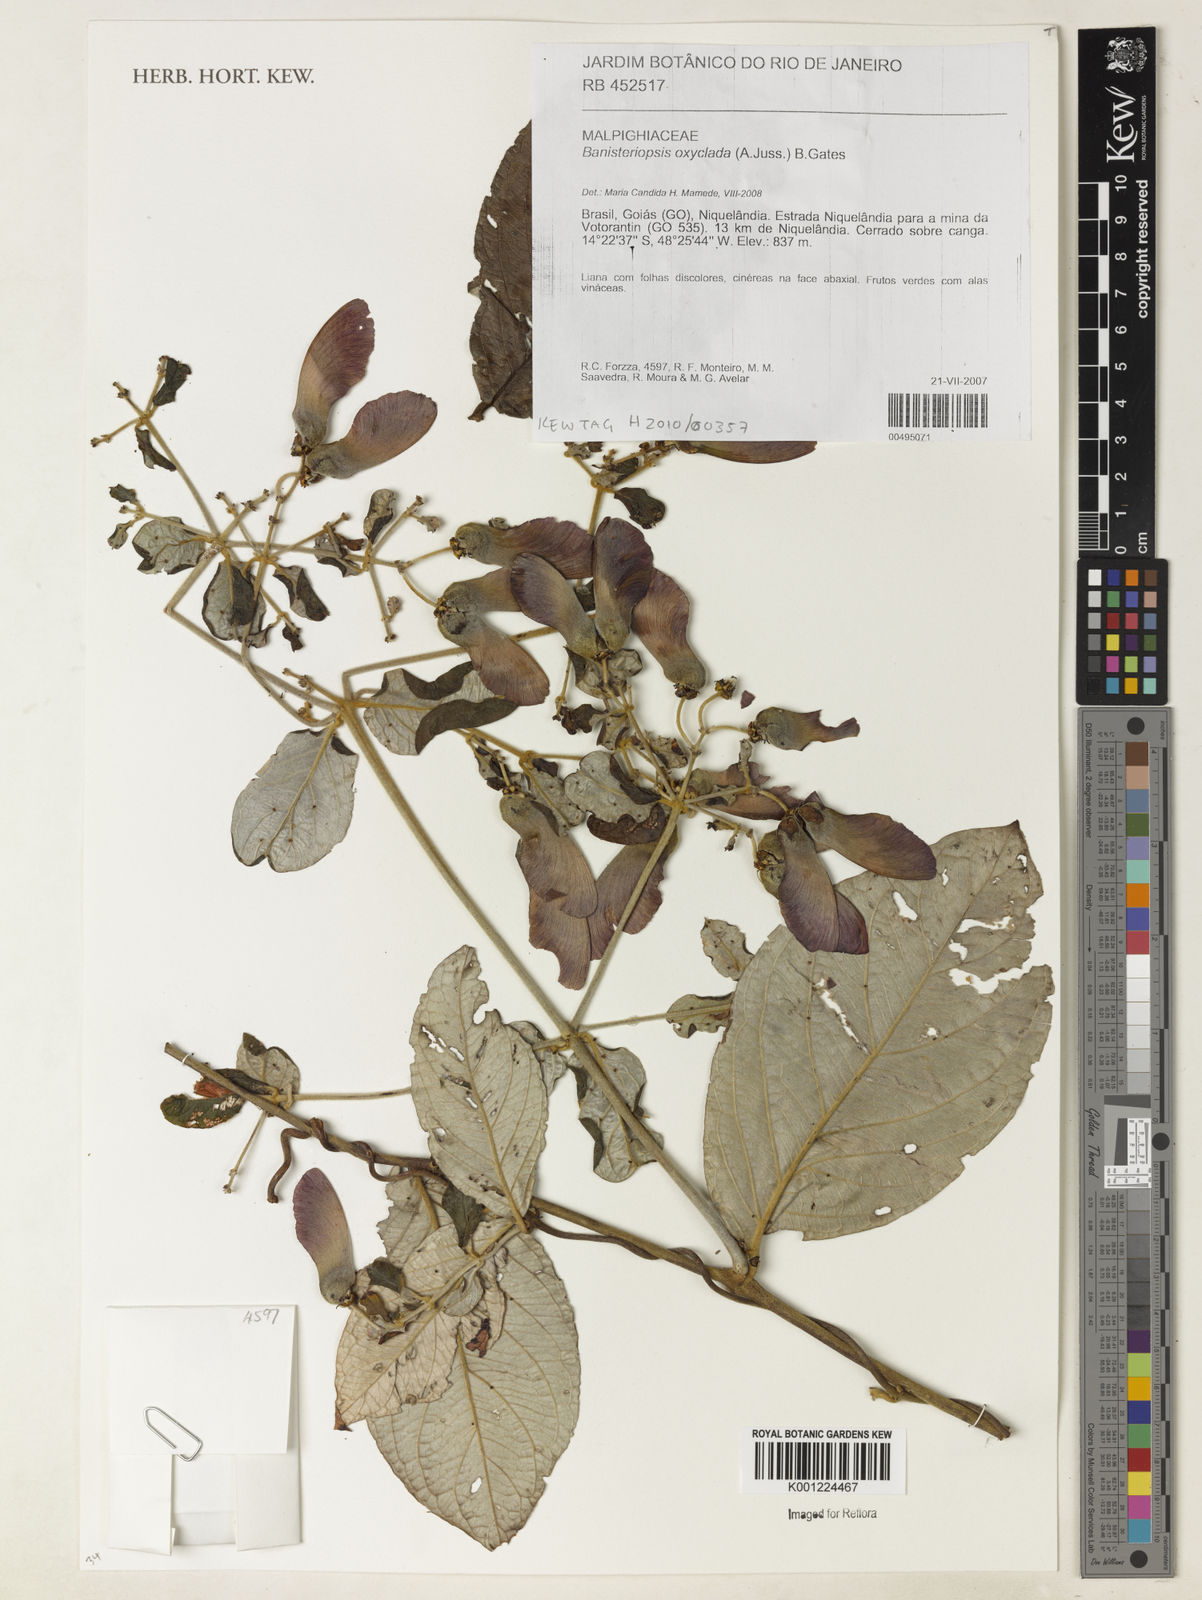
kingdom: Plantae
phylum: Tracheophyta
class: Magnoliopsida
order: Malpighiales
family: Malpighiaceae
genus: Banisteriopsis
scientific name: Banisteriopsis oxyclada
